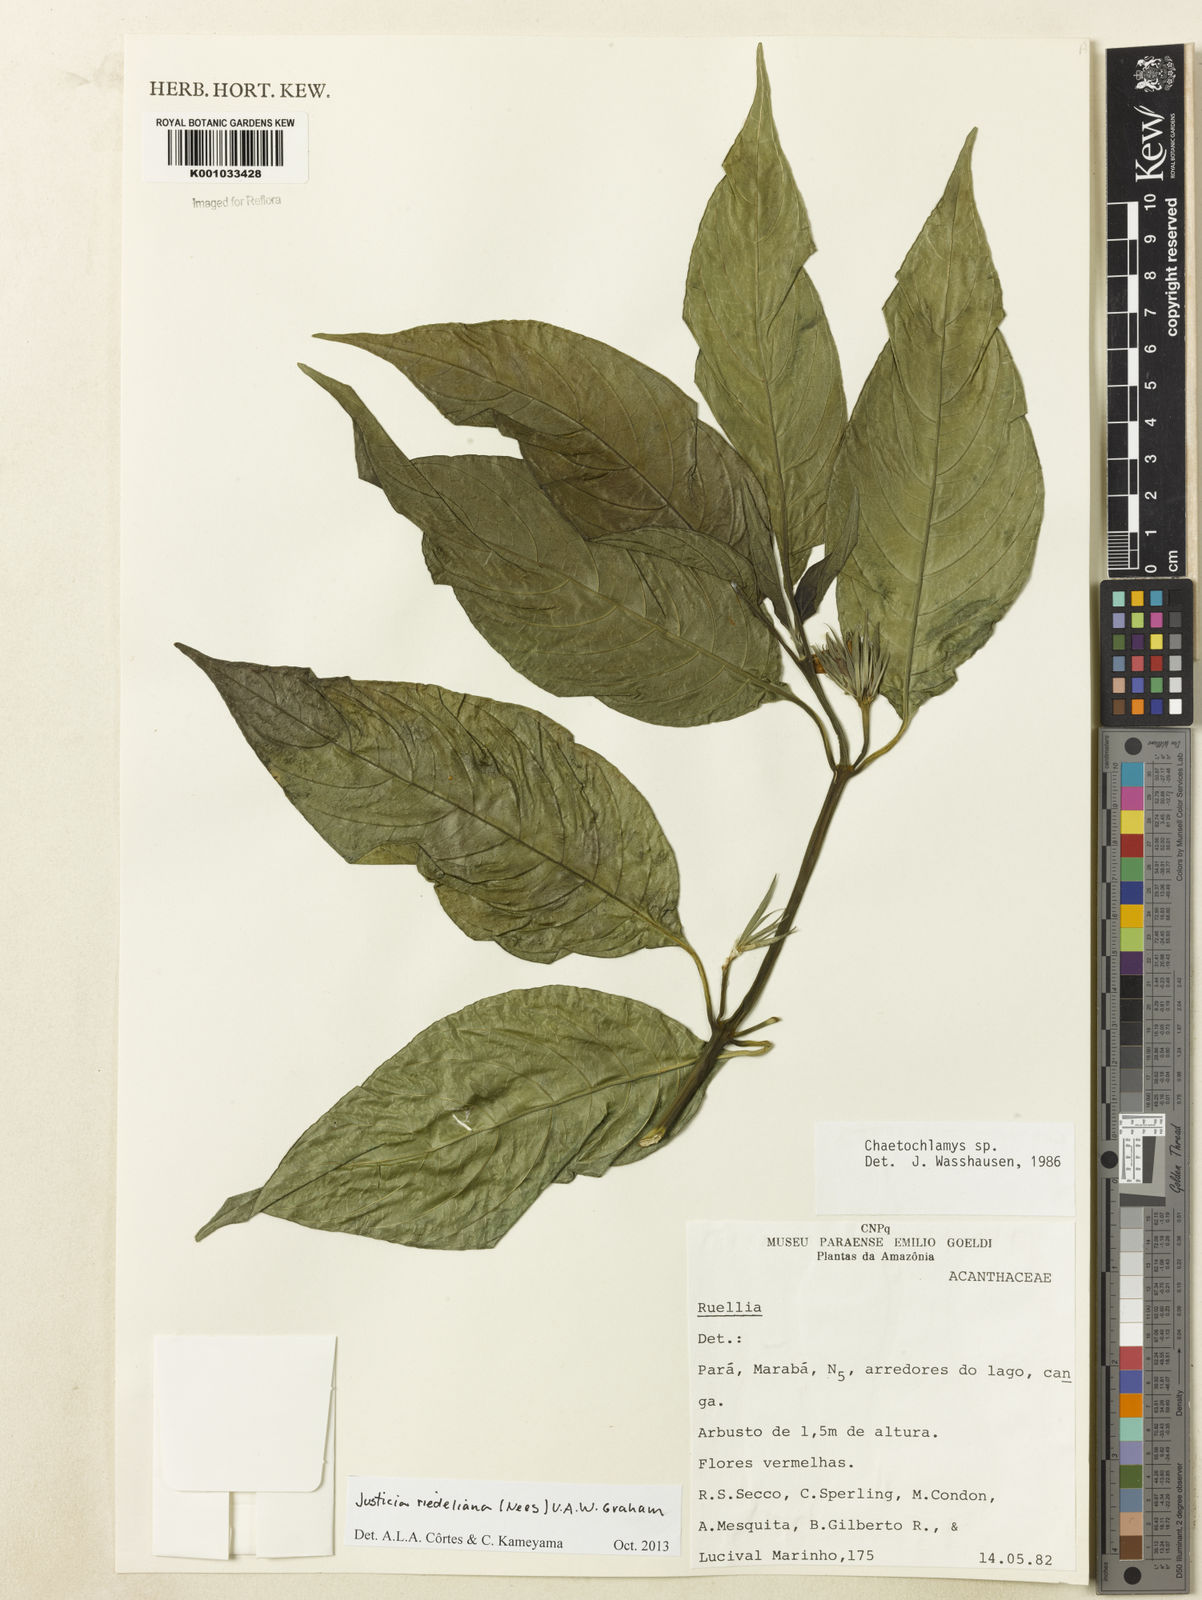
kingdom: Plantae
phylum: Tracheophyta
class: Magnoliopsida
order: Lamiales
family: Acanthaceae
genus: Justicia
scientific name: Justicia riedeliana
